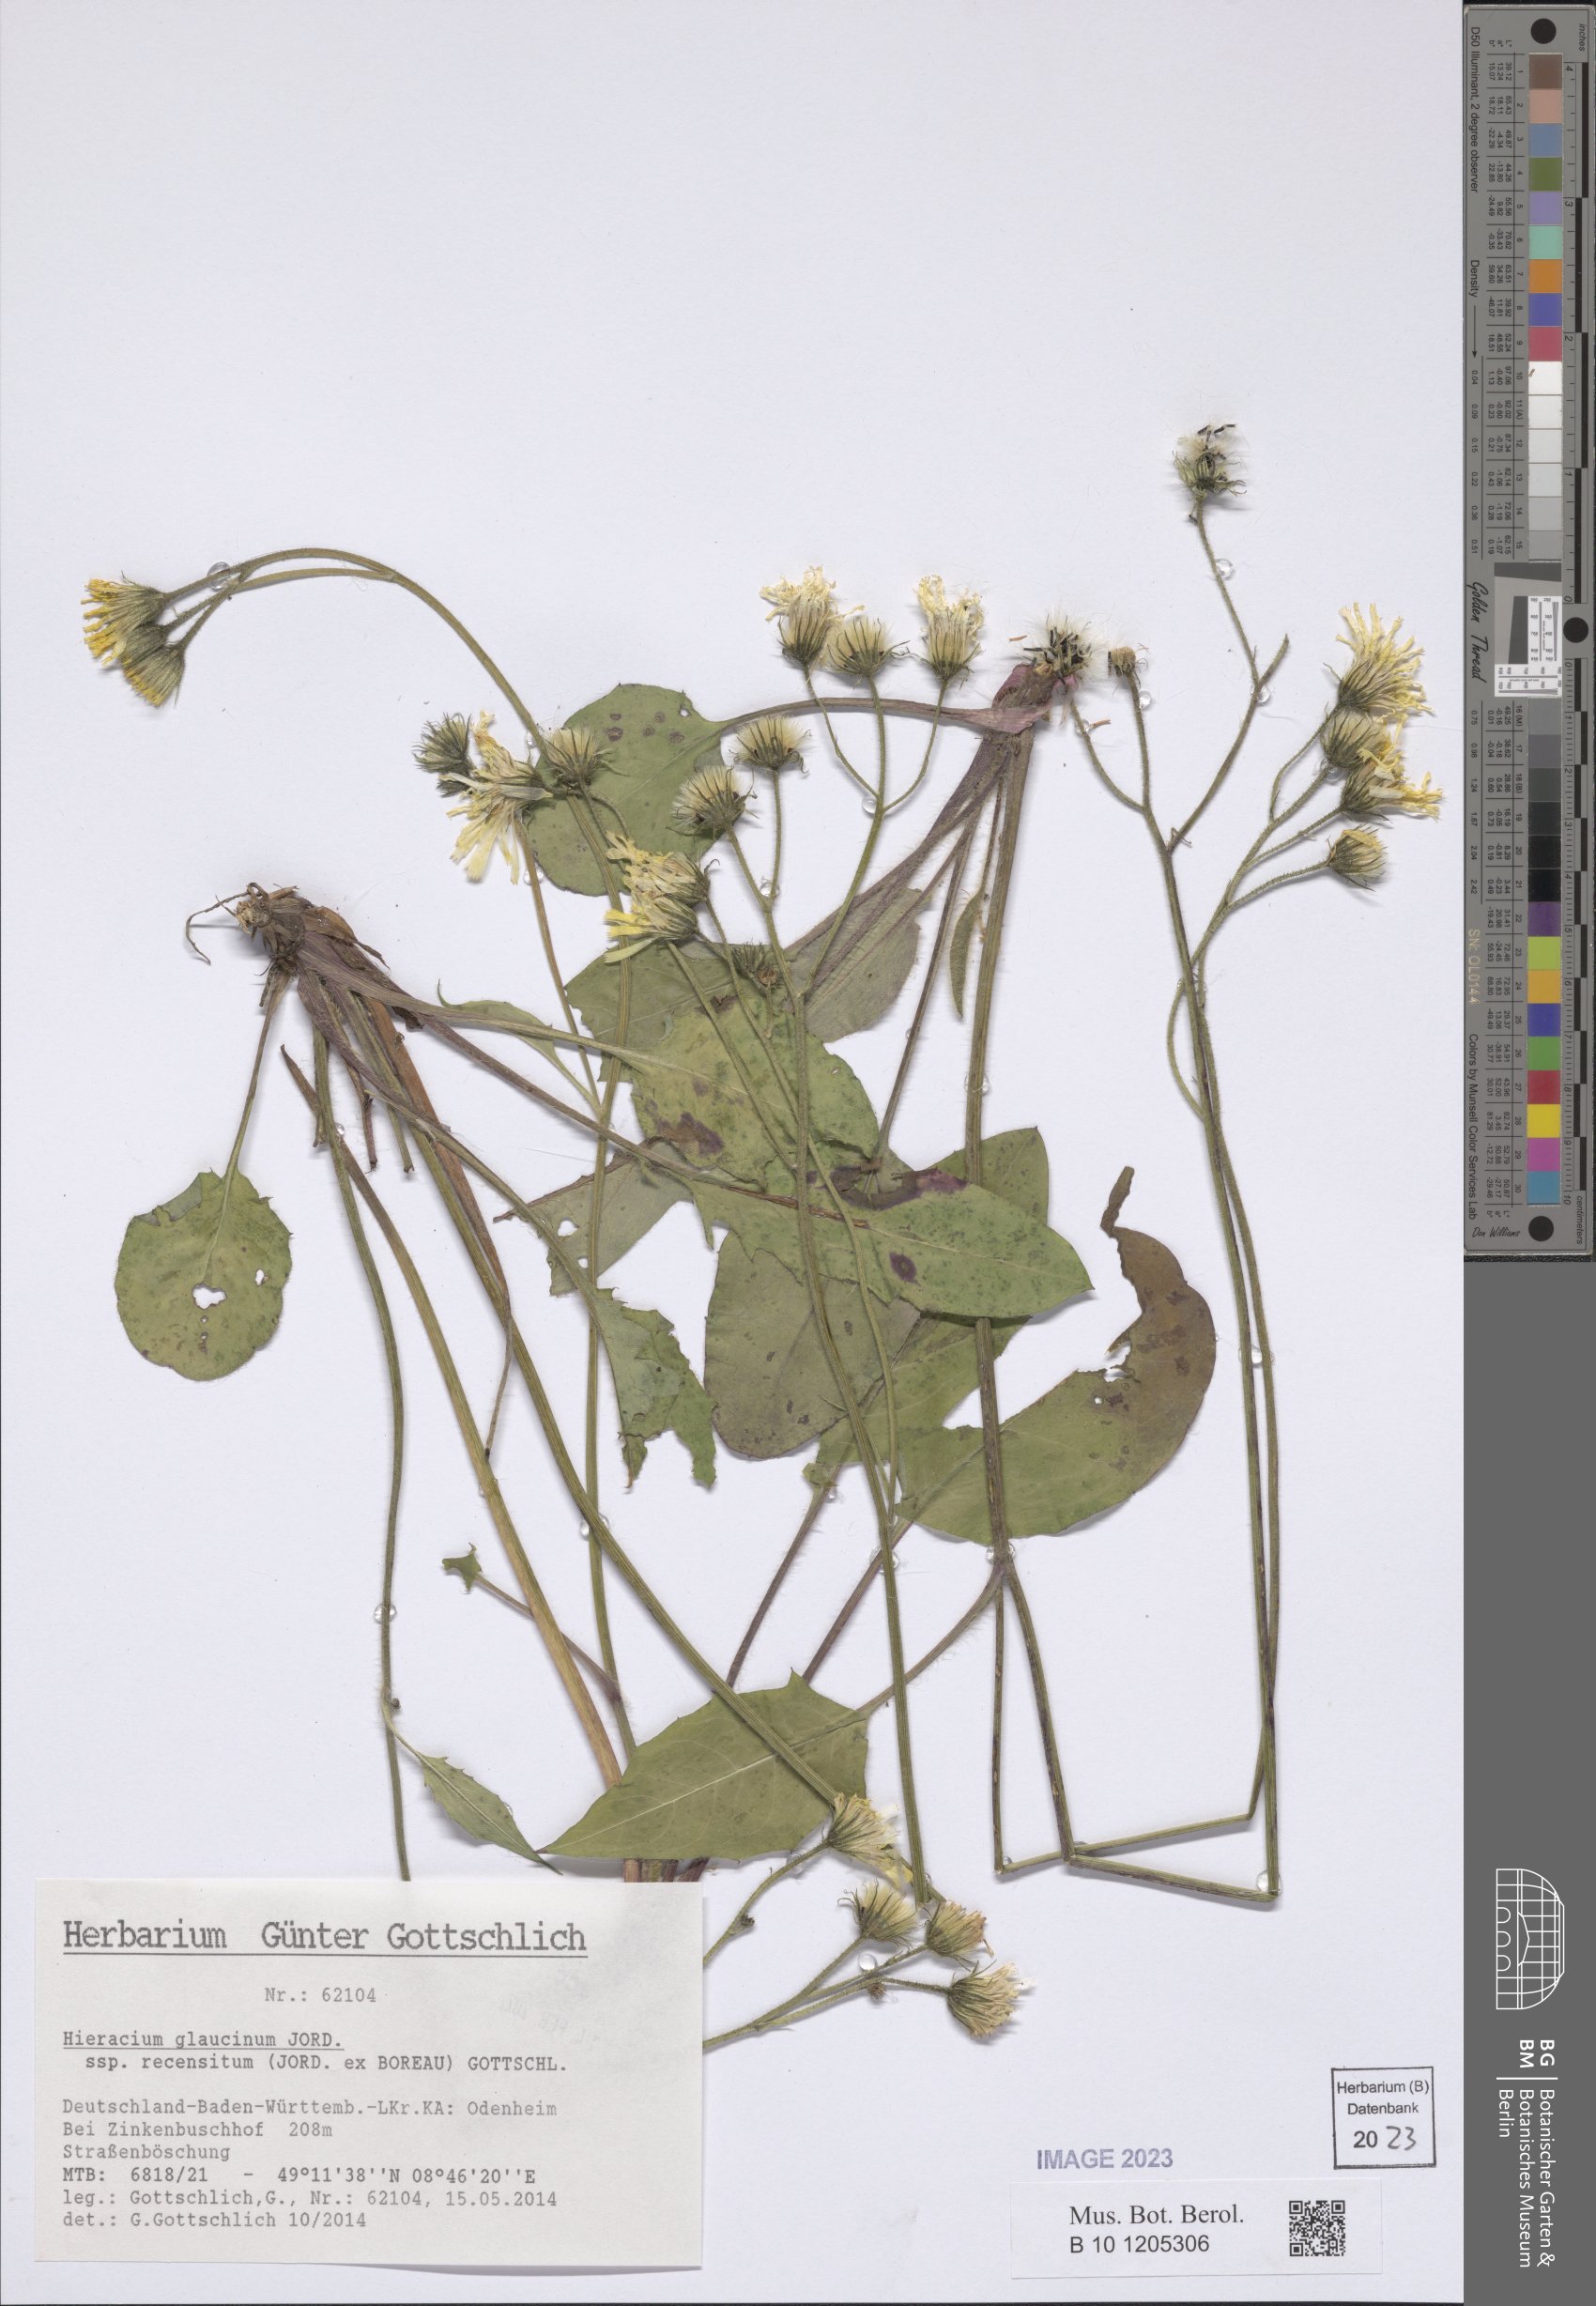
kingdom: Plantae
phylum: Tracheophyta
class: Magnoliopsida
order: Asterales
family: Asteraceae
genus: Hieracium
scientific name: Hieracium glaucinum
